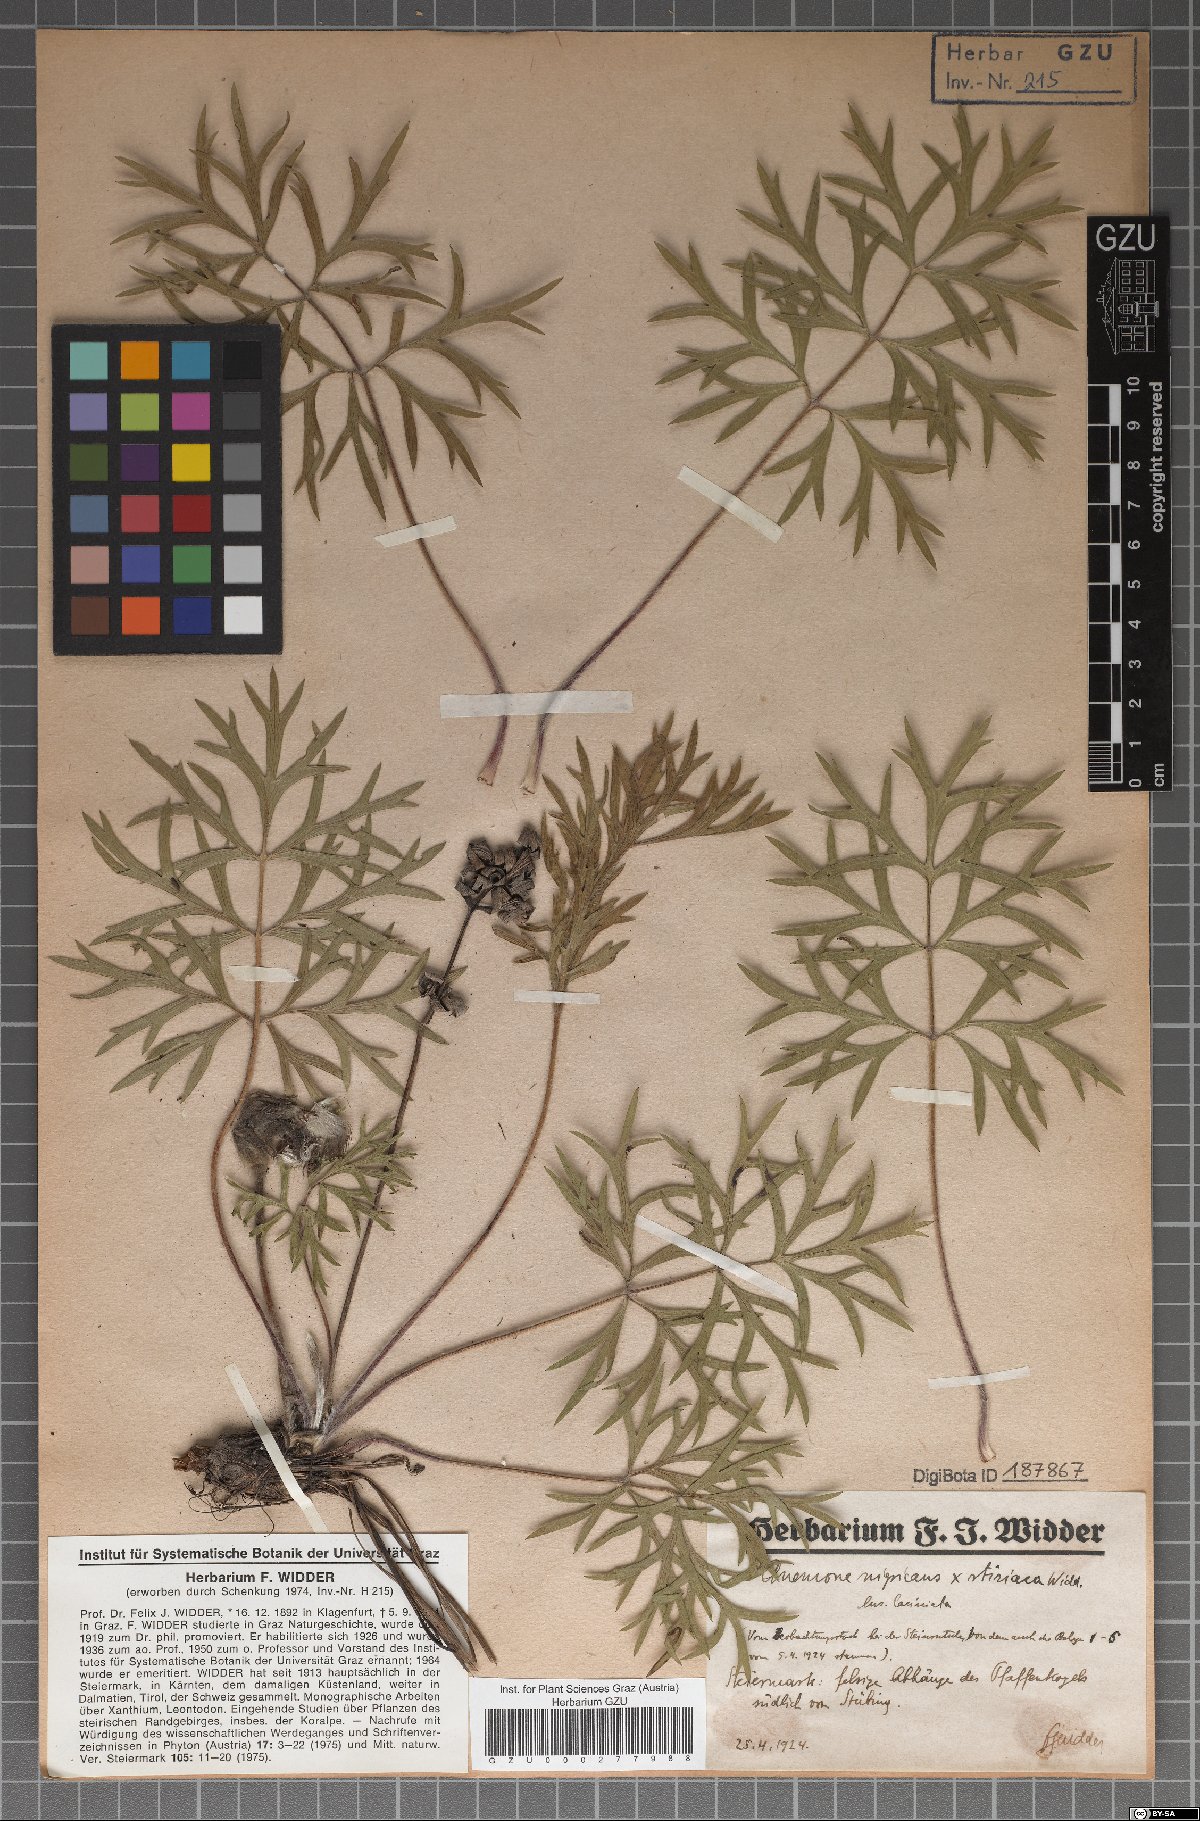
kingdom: Plantae
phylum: Tracheophyta
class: Magnoliopsida
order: Ranunculales
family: Ranunculaceae
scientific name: Ranunculaceae
